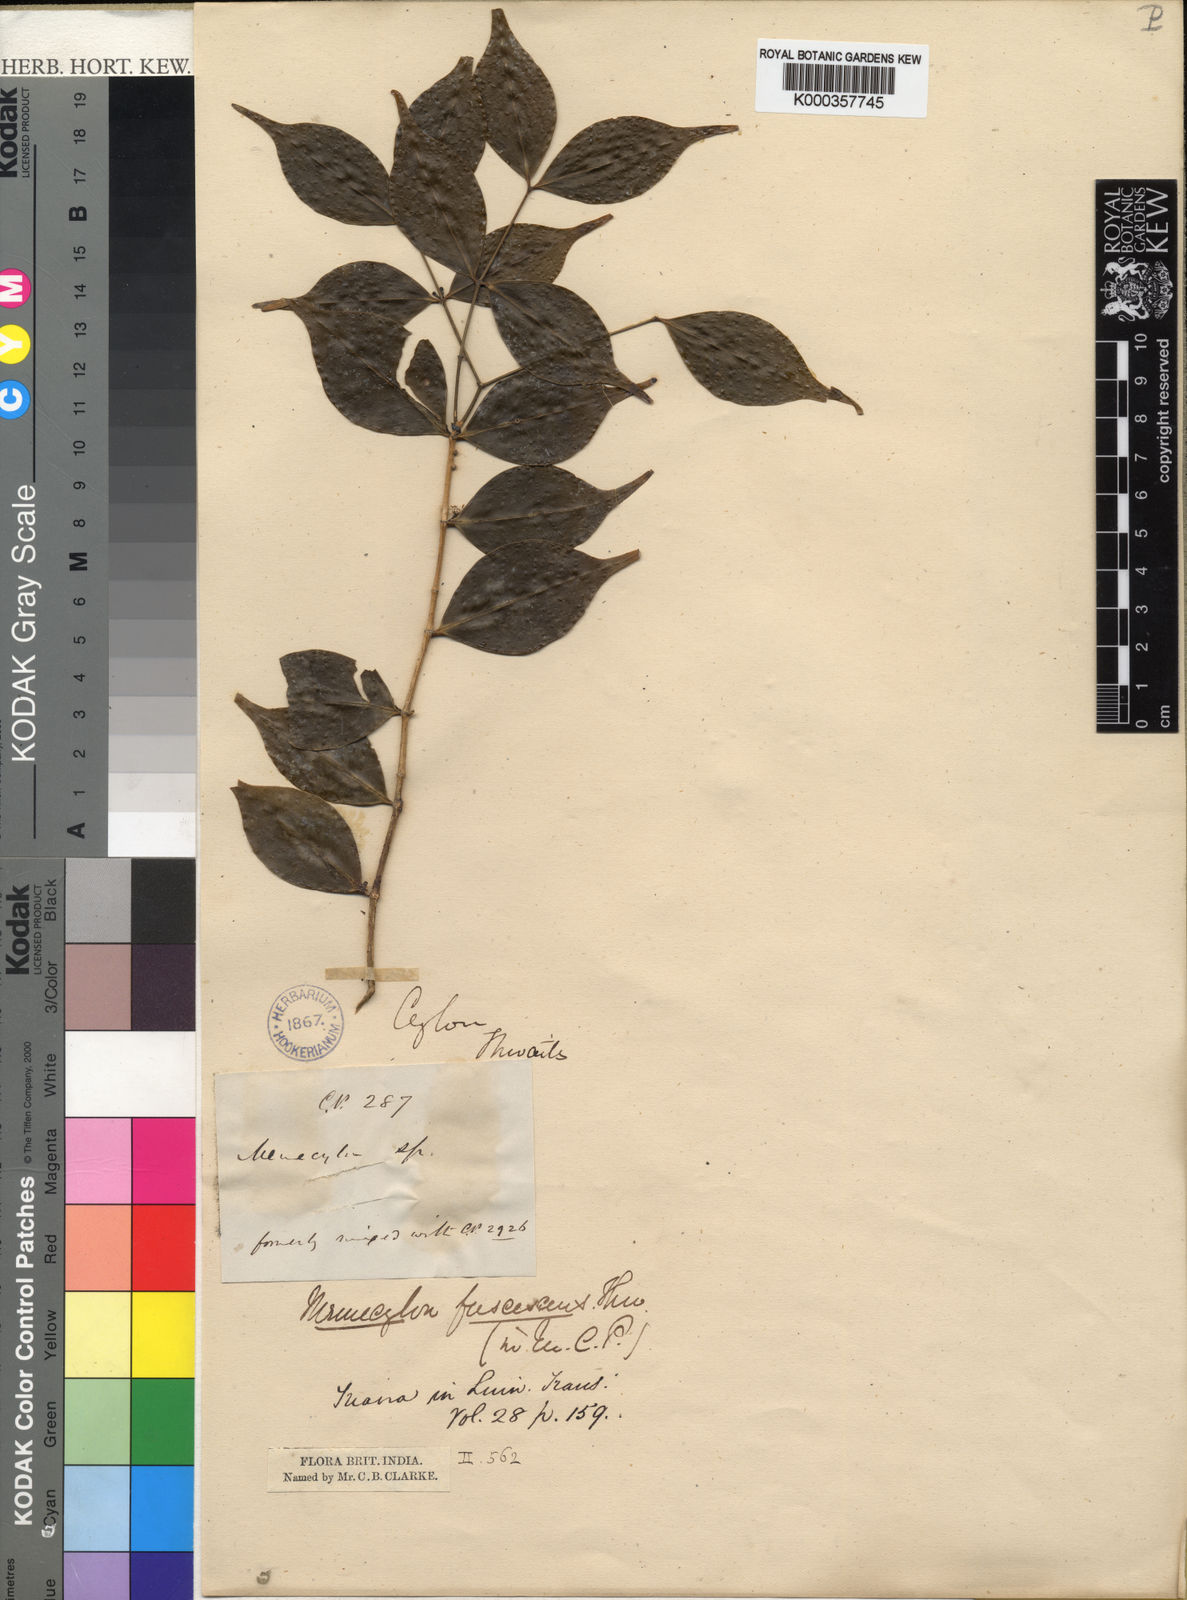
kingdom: Plantae
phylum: Tracheophyta
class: Magnoliopsida
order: Myrtales
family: Melastomataceae
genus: Memecylon
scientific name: Memecylon fuscescens
